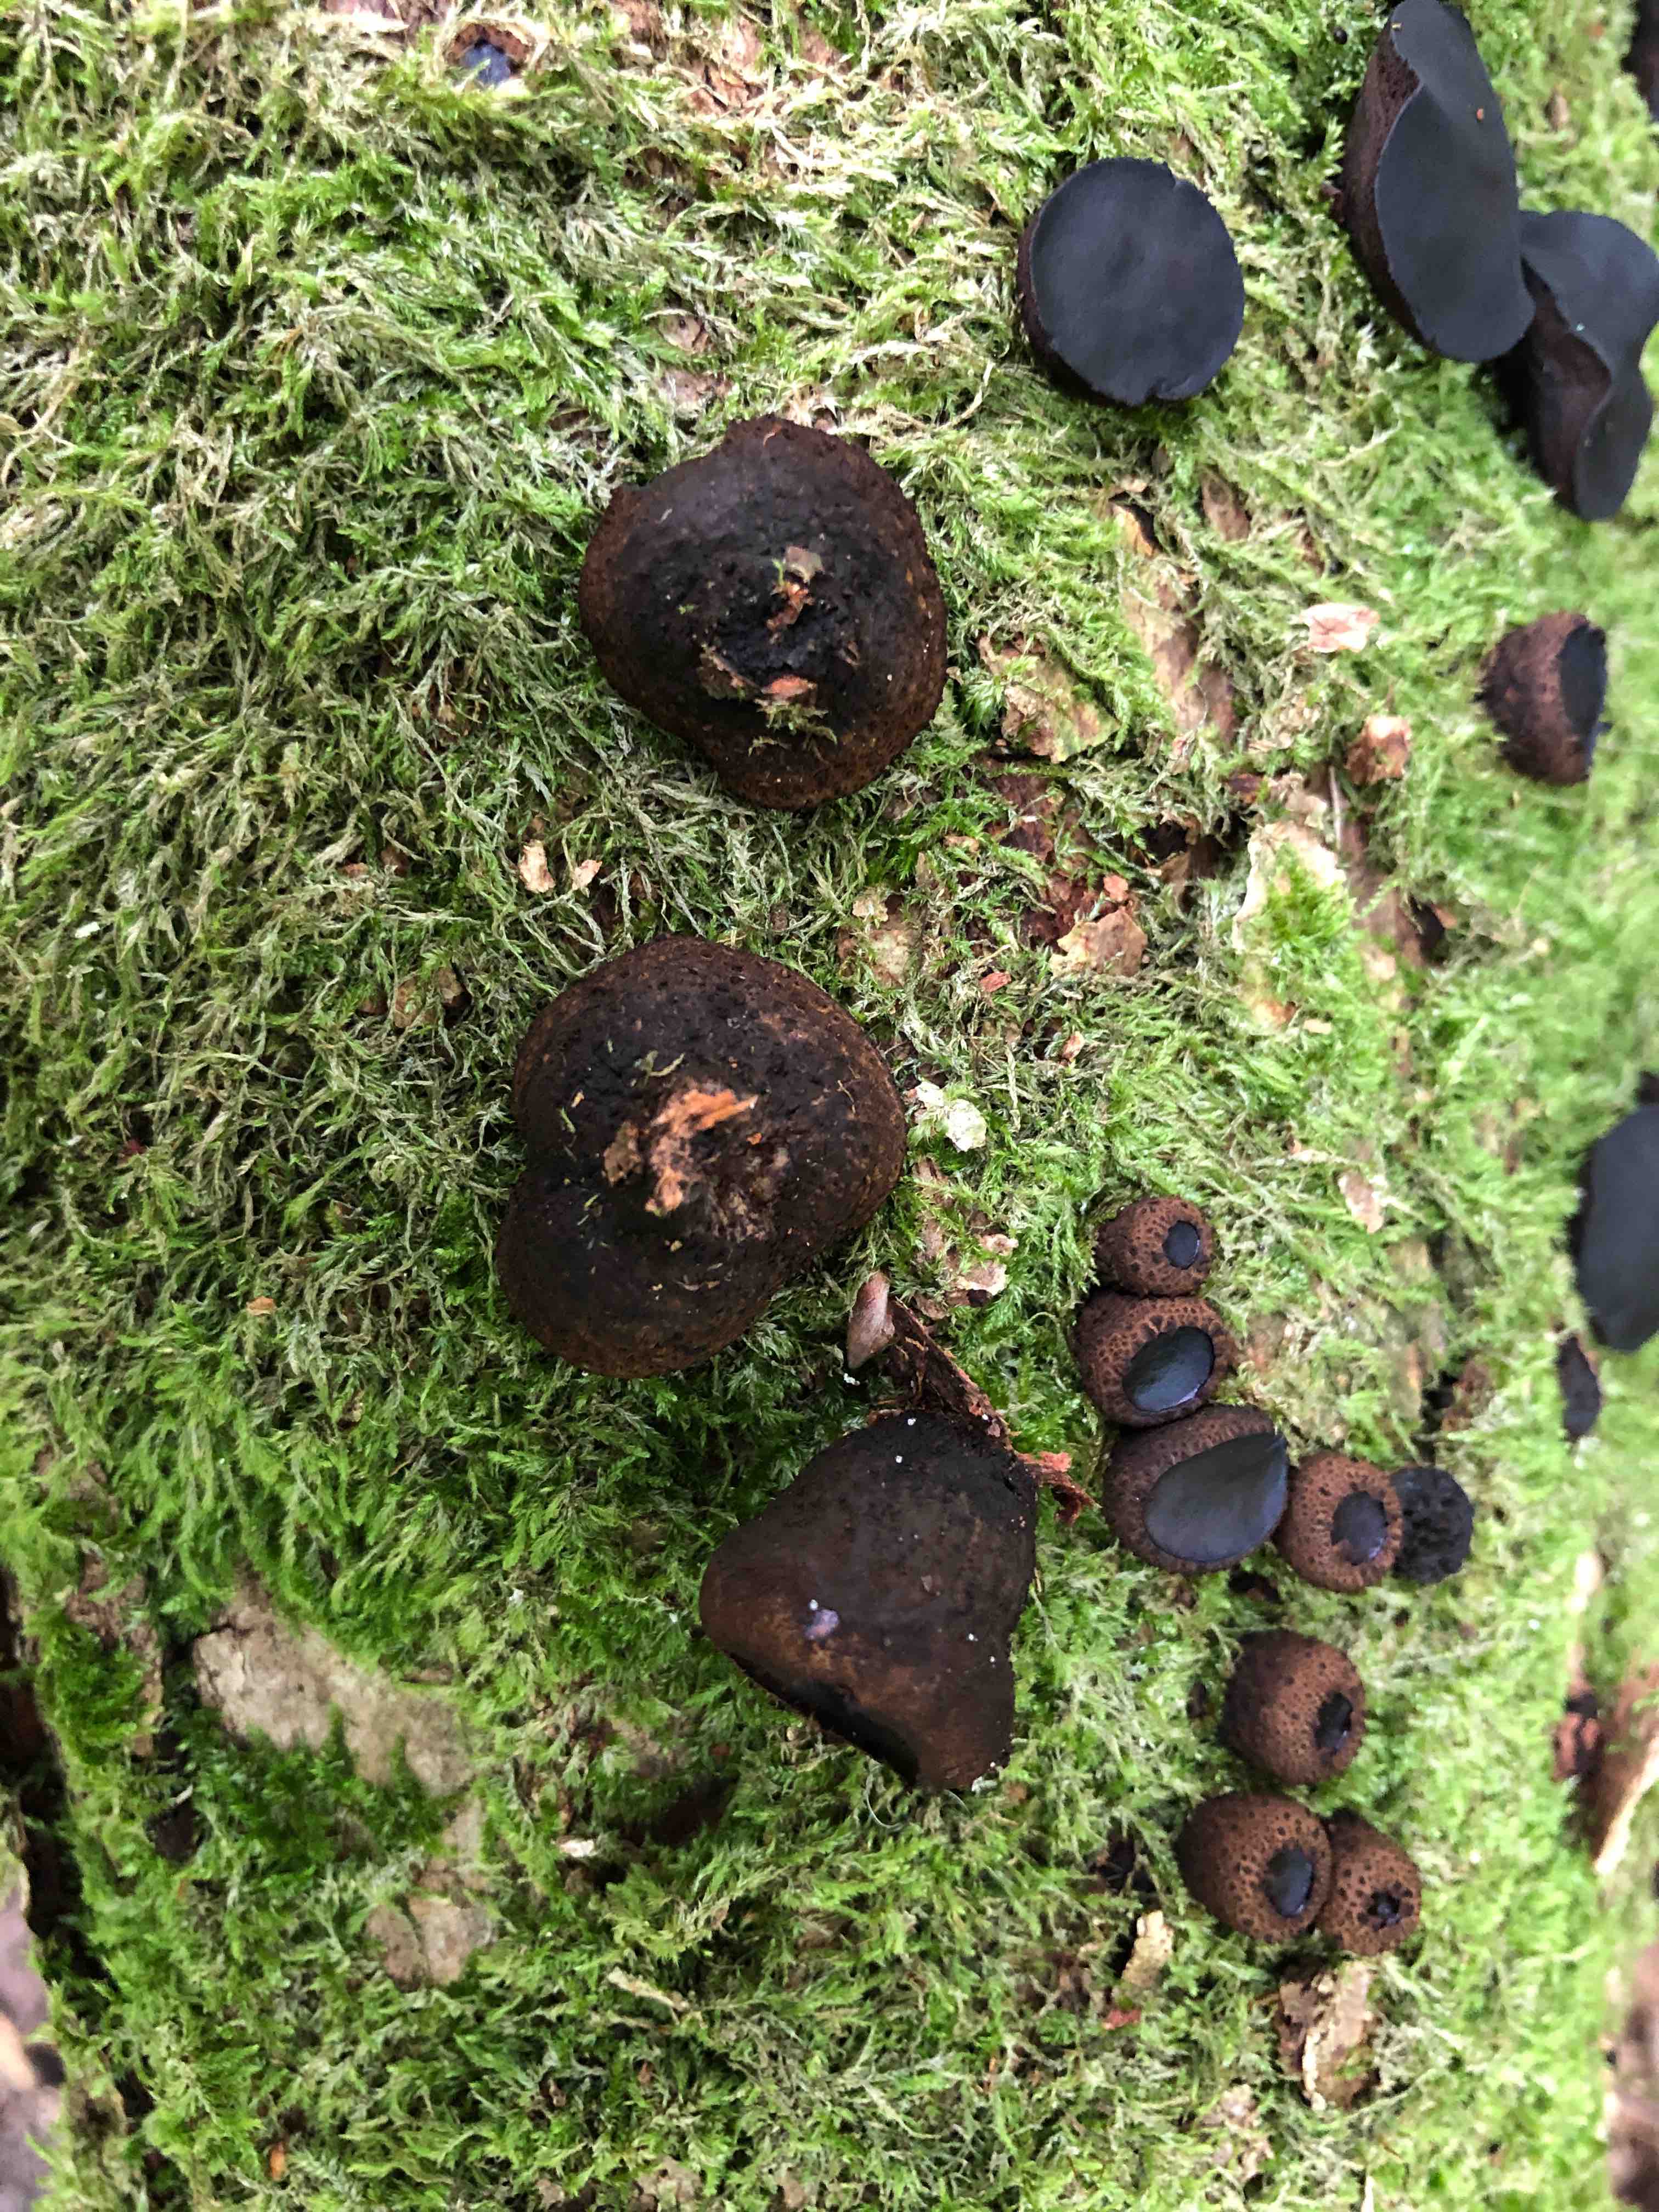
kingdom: Fungi
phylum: Ascomycota
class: Leotiomycetes
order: Phacidiales
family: Phacidiaceae
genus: Bulgaria
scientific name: Bulgaria inquinans
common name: afsmittende topsvamp
